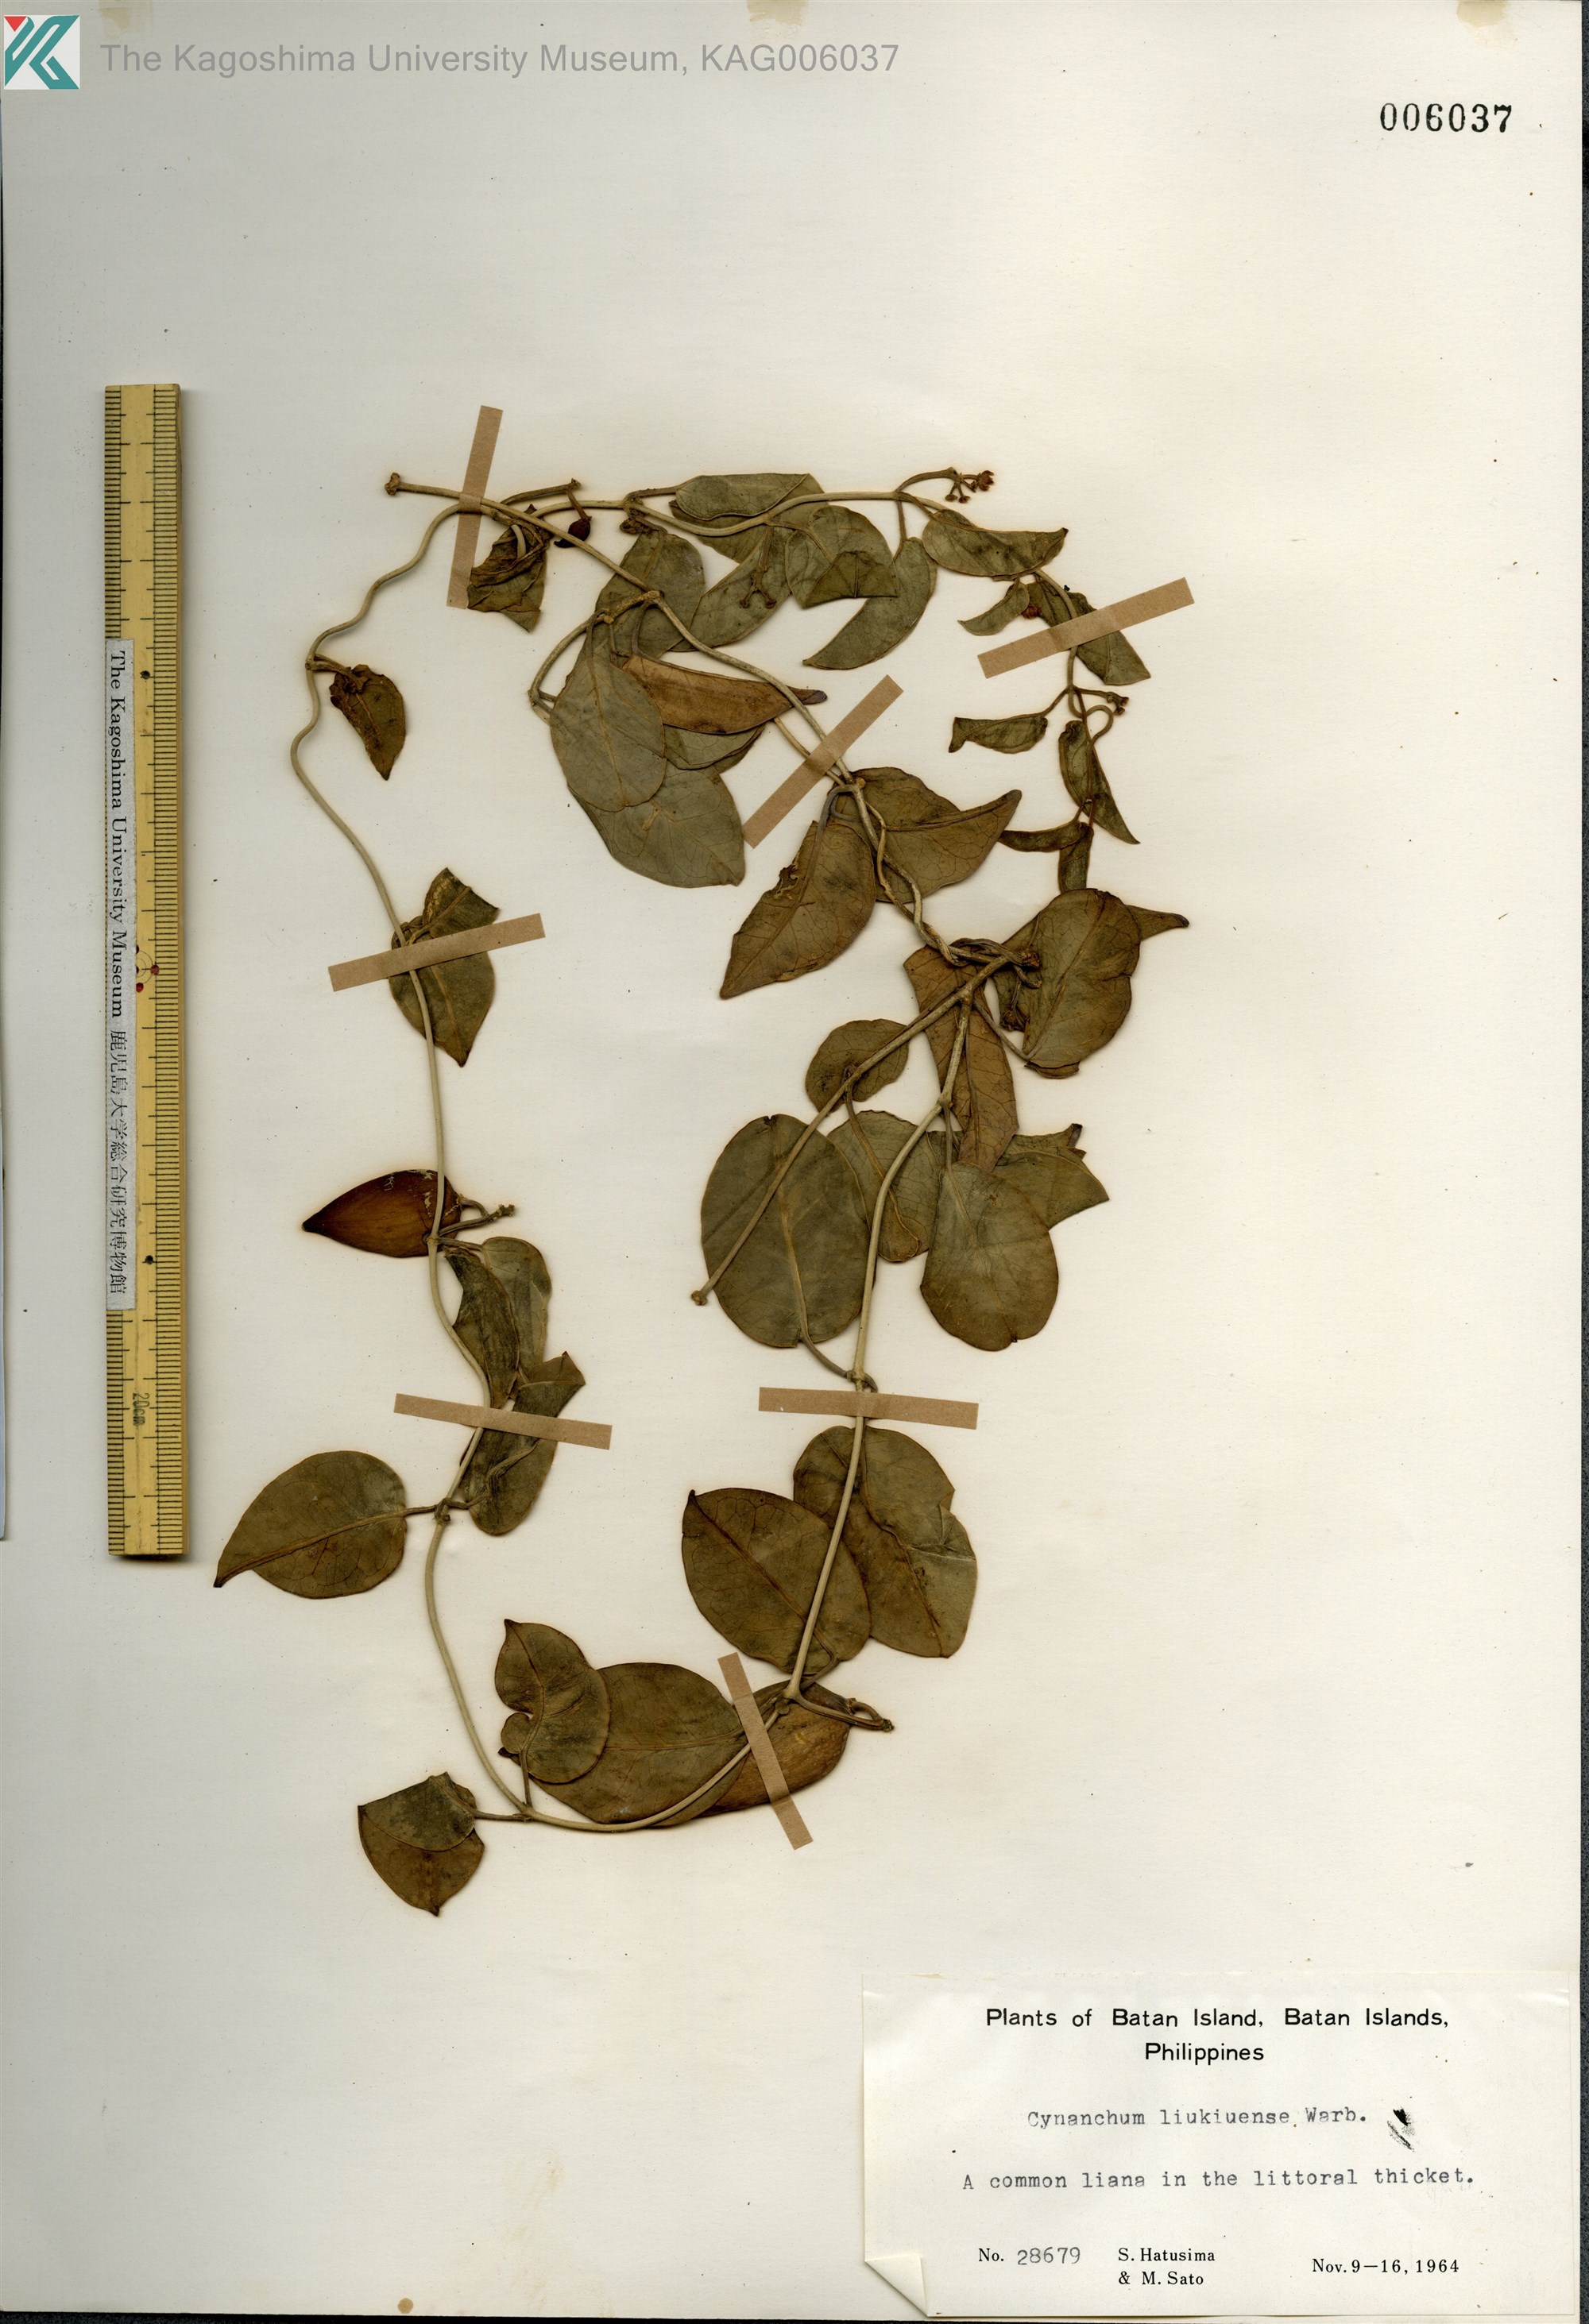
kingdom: Plantae
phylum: Tracheophyta
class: Magnoliopsida
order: Gentianales
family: Apocynaceae
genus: Cynanchum
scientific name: Cynanchum liukiuense
